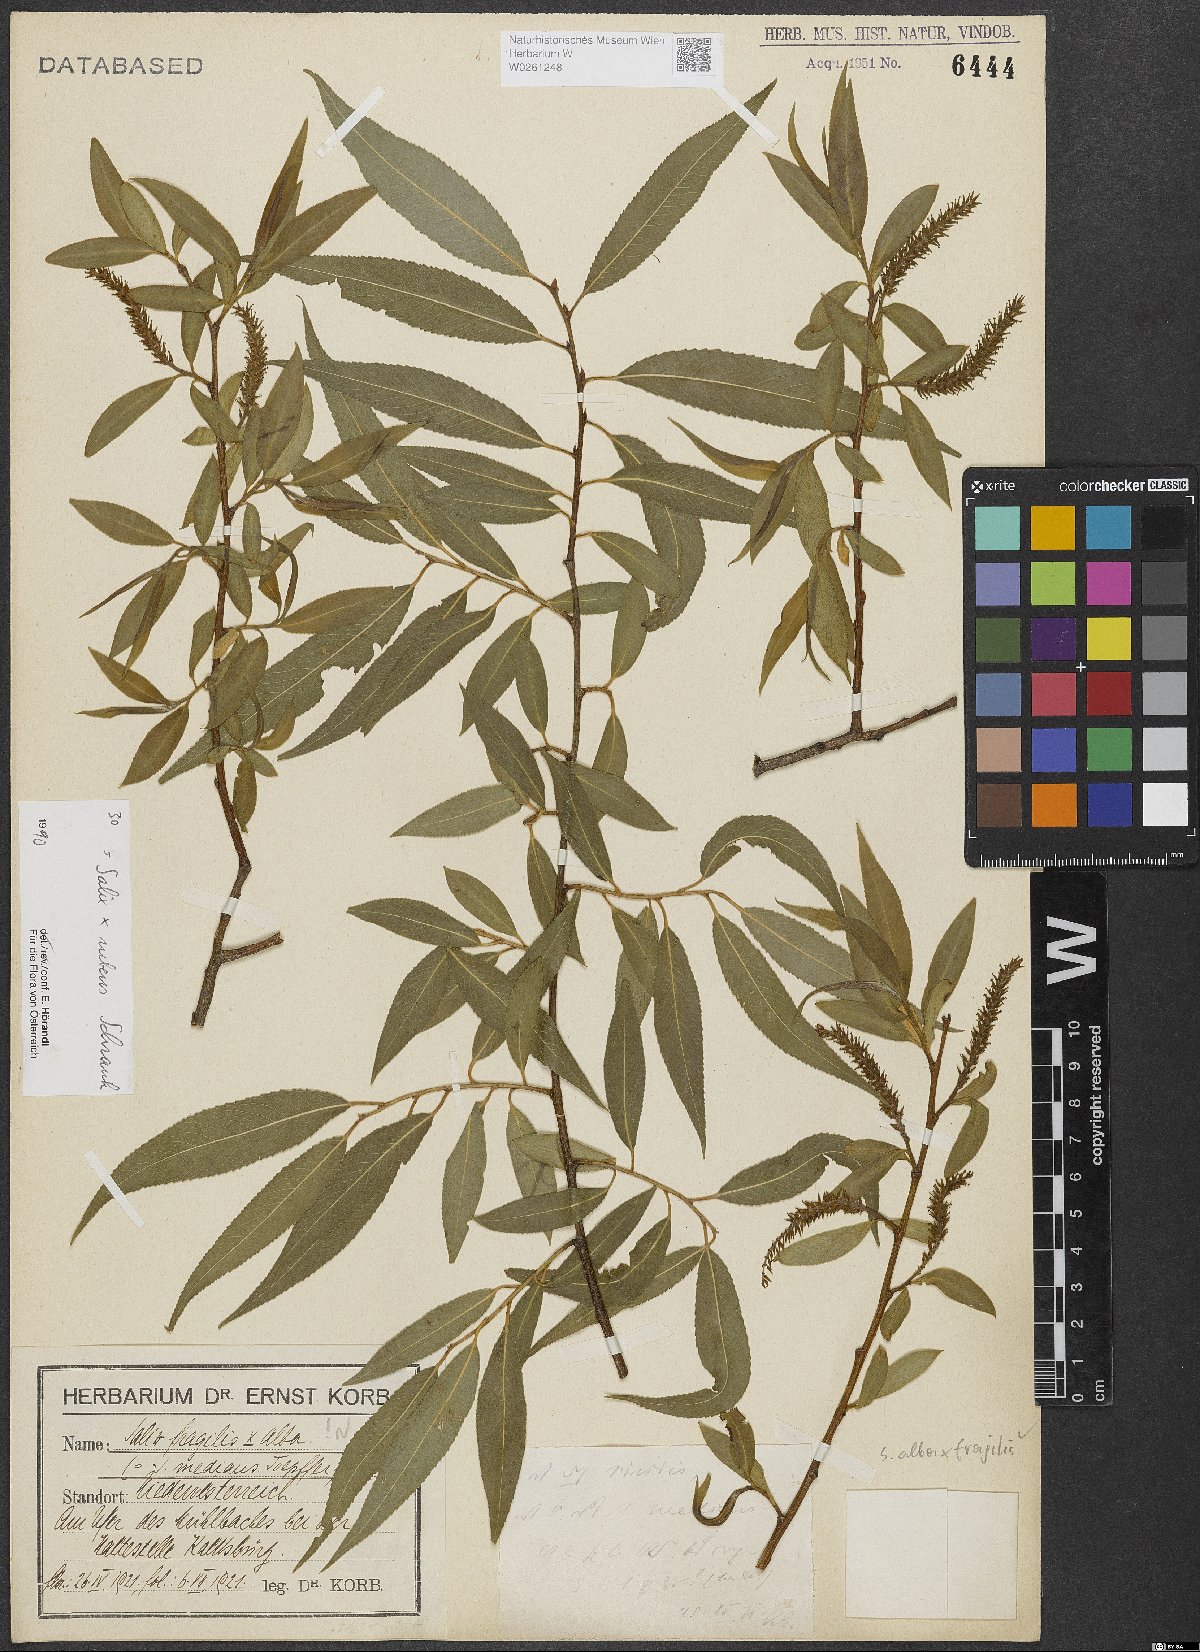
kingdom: Plantae
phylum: Tracheophyta
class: Magnoliopsida
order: Malpighiales
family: Salicaceae
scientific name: Salicaceae
